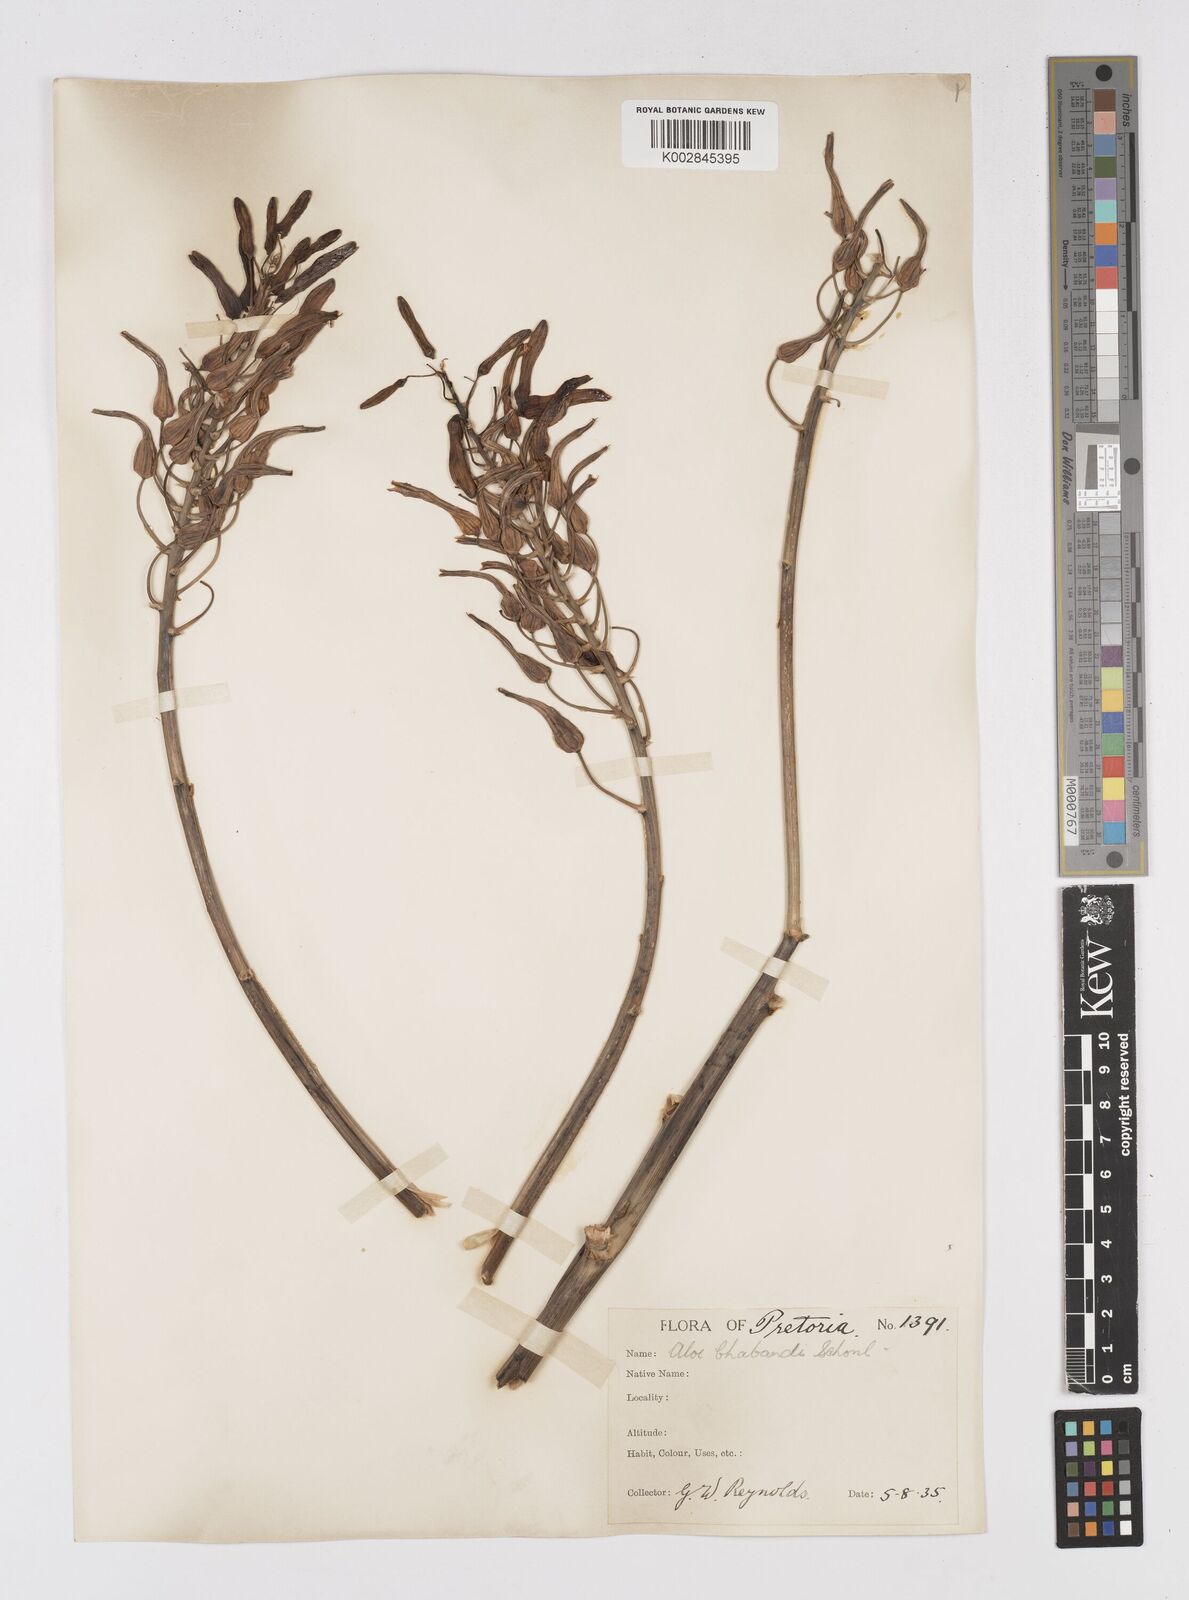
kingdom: Plantae
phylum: Tracheophyta
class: Liliopsida
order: Asparagales
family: Asphodelaceae
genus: Aloe
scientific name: Aloe chabaudii
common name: Chabaud's aloe
